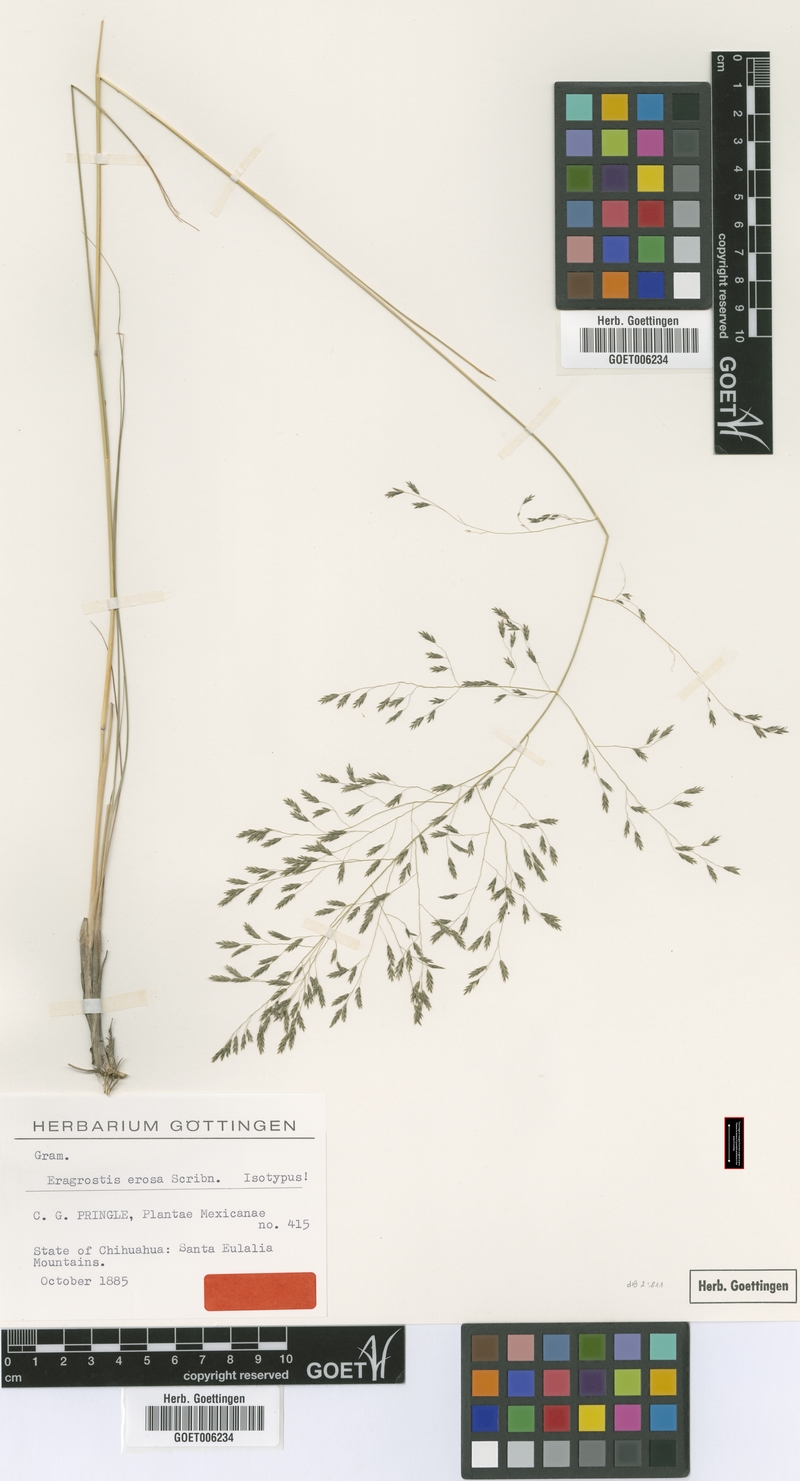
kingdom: Plantae
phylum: Tracheophyta
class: Liliopsida
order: Poales
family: Poaceae
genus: Eragrostis
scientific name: Eragrostis erosa
